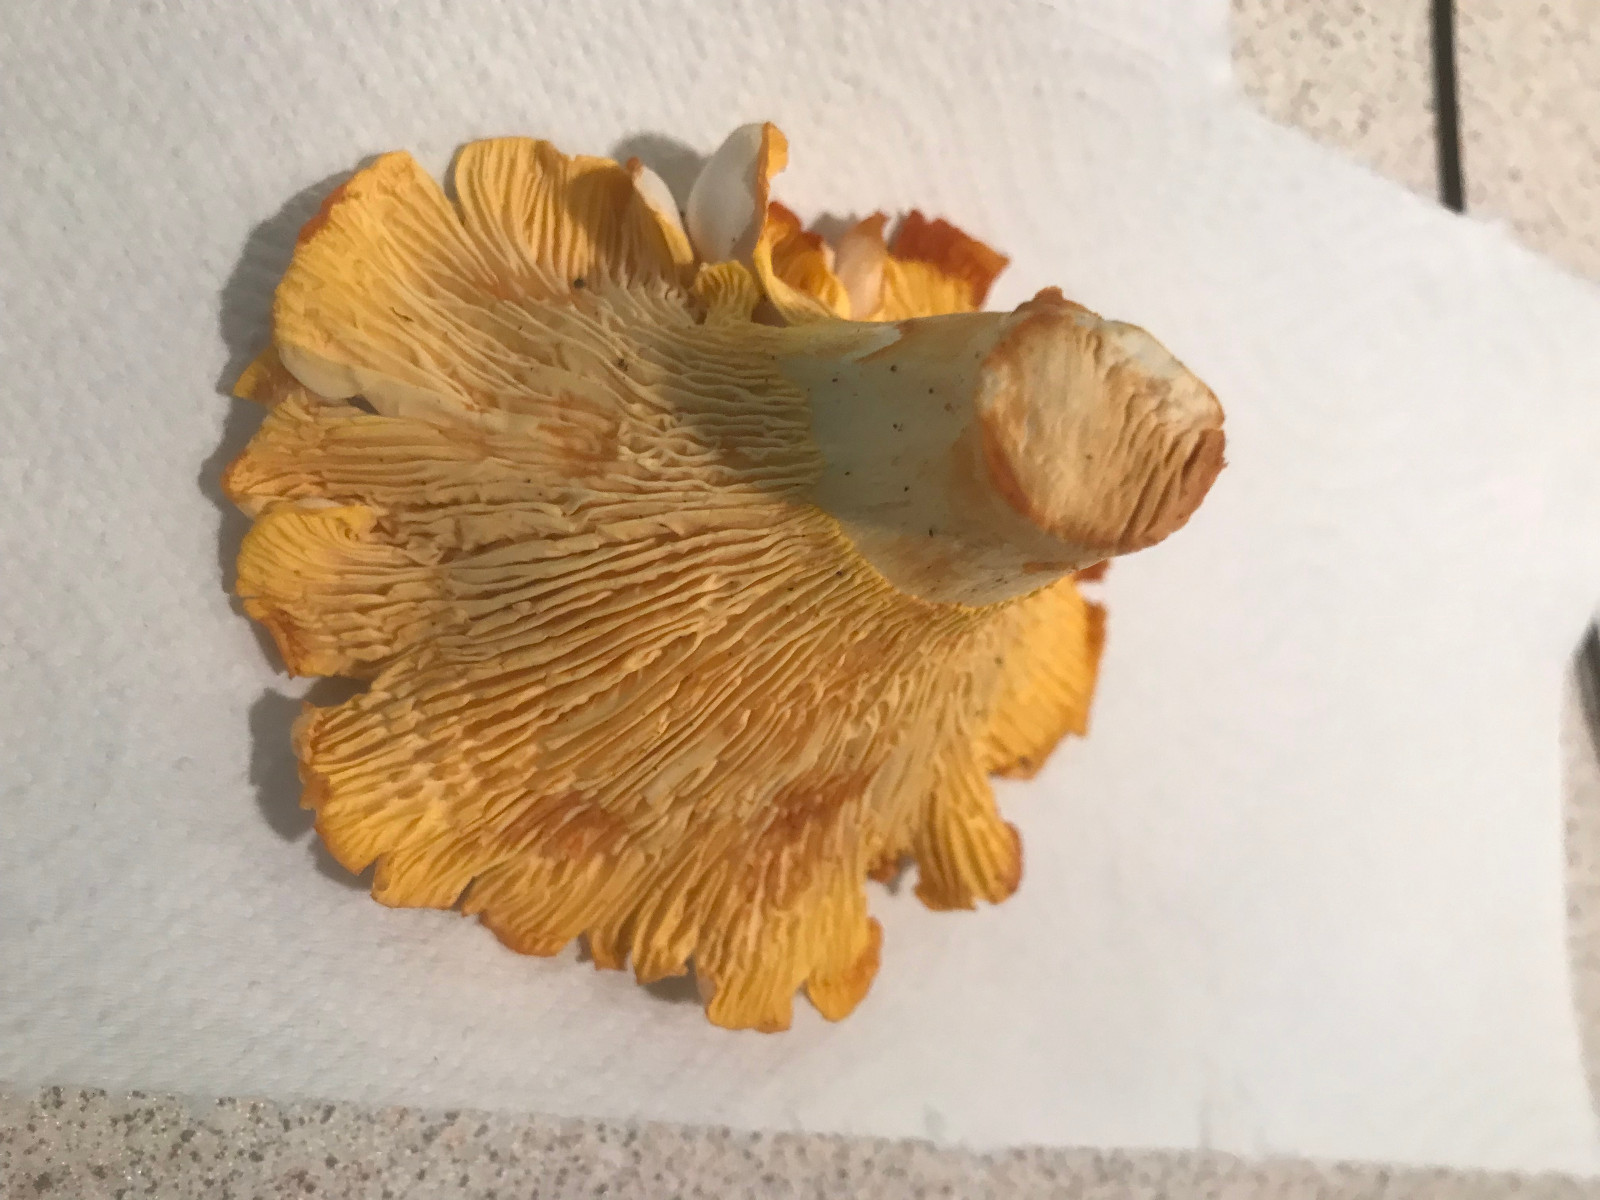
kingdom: Fungi
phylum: Basidiomycota
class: Agaricomycetes
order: Cantharellales
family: Hydnaceae
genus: Cantharellus
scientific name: Cantharellus pallens
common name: bleg kantarel
